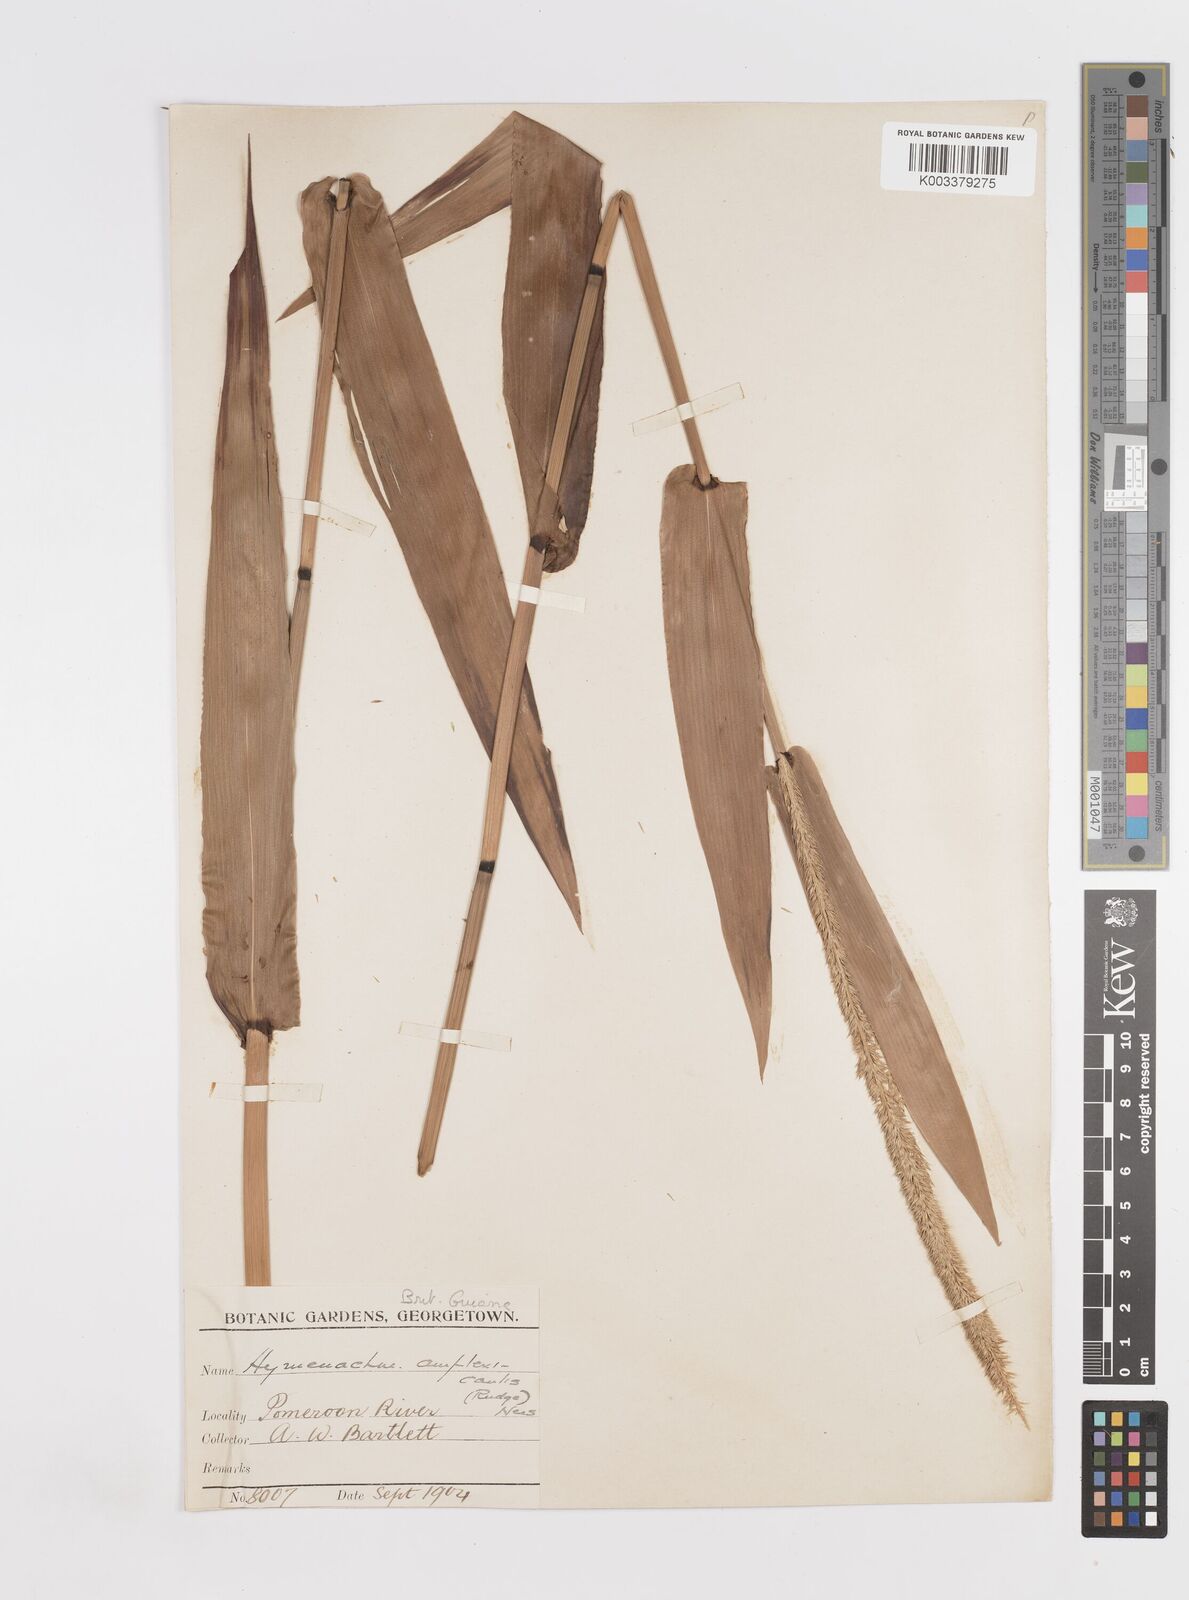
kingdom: Plantae
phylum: Tracheophyta
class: Liliopsida
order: Poales
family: Poaceae
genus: Hymenachne
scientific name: Hymenachne amplexicaulis
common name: Olive hymenachne
